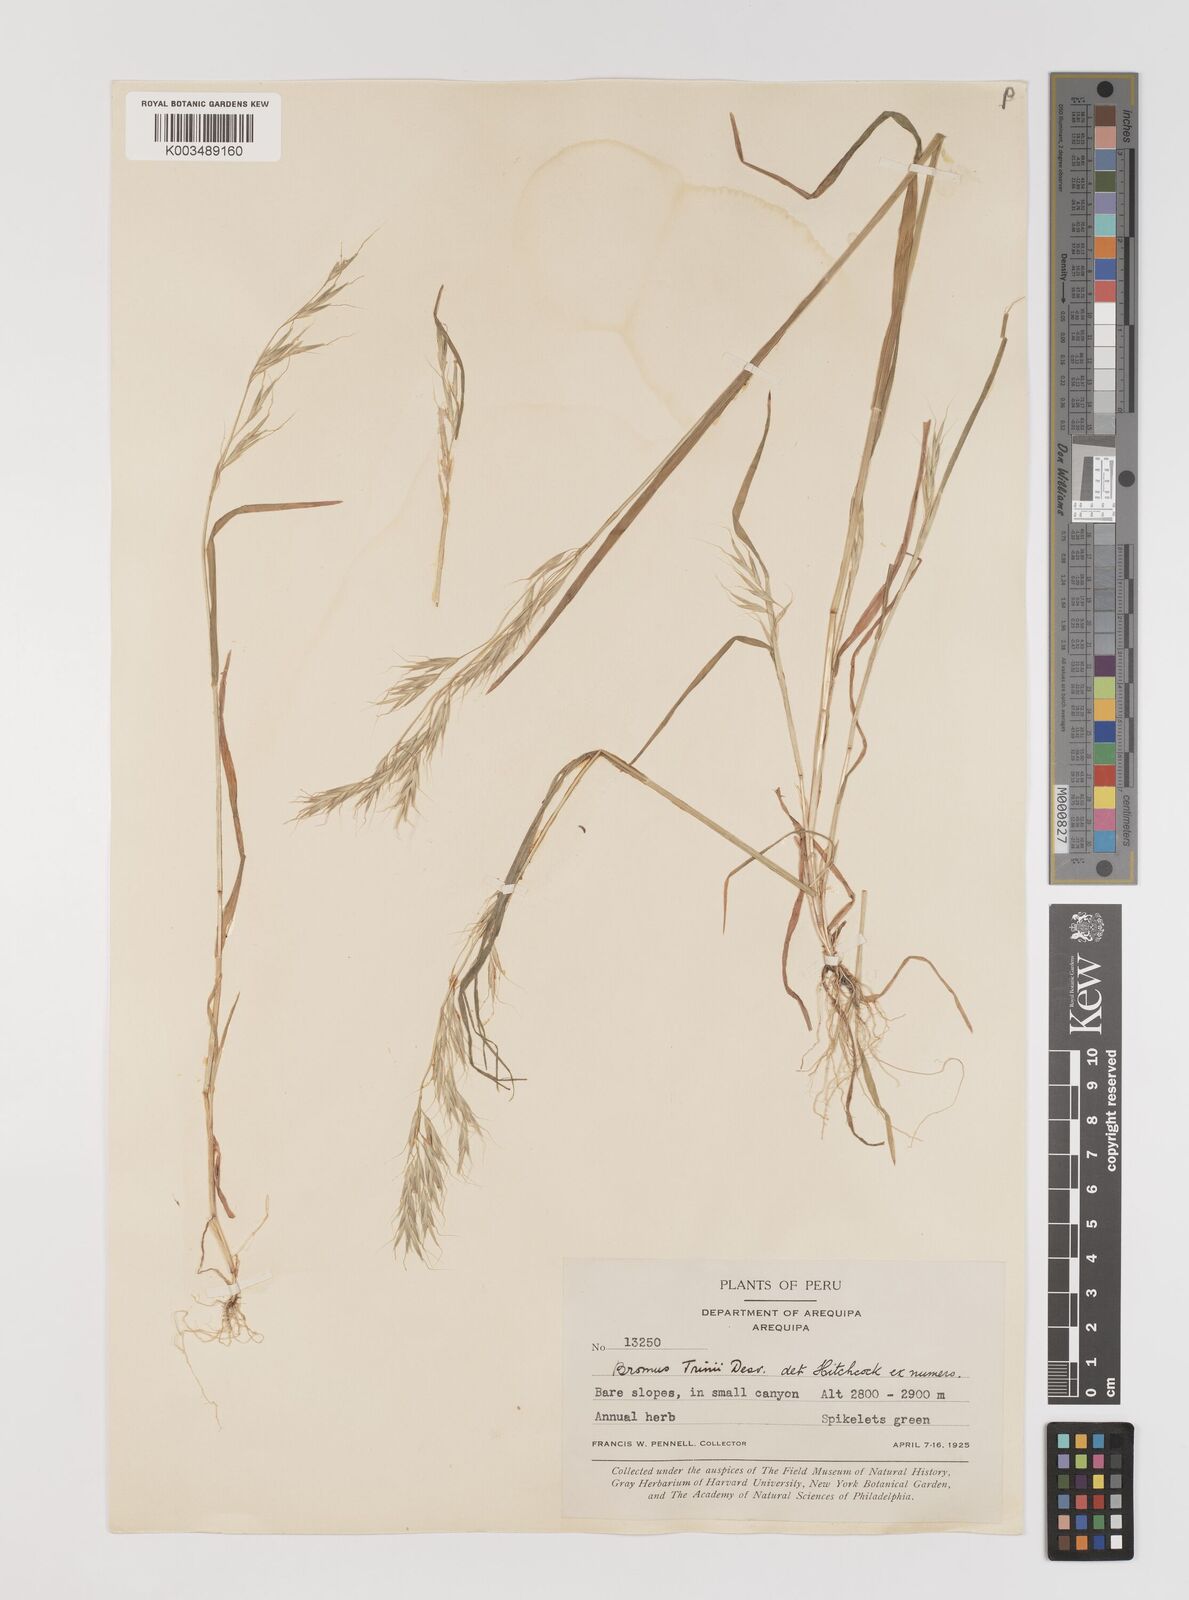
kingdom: Plantae
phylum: Tracheophyta
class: Liliopsida
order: Poales
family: Poaceae
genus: Bromus
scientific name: Bromus berteroanus
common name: Chilean chess
